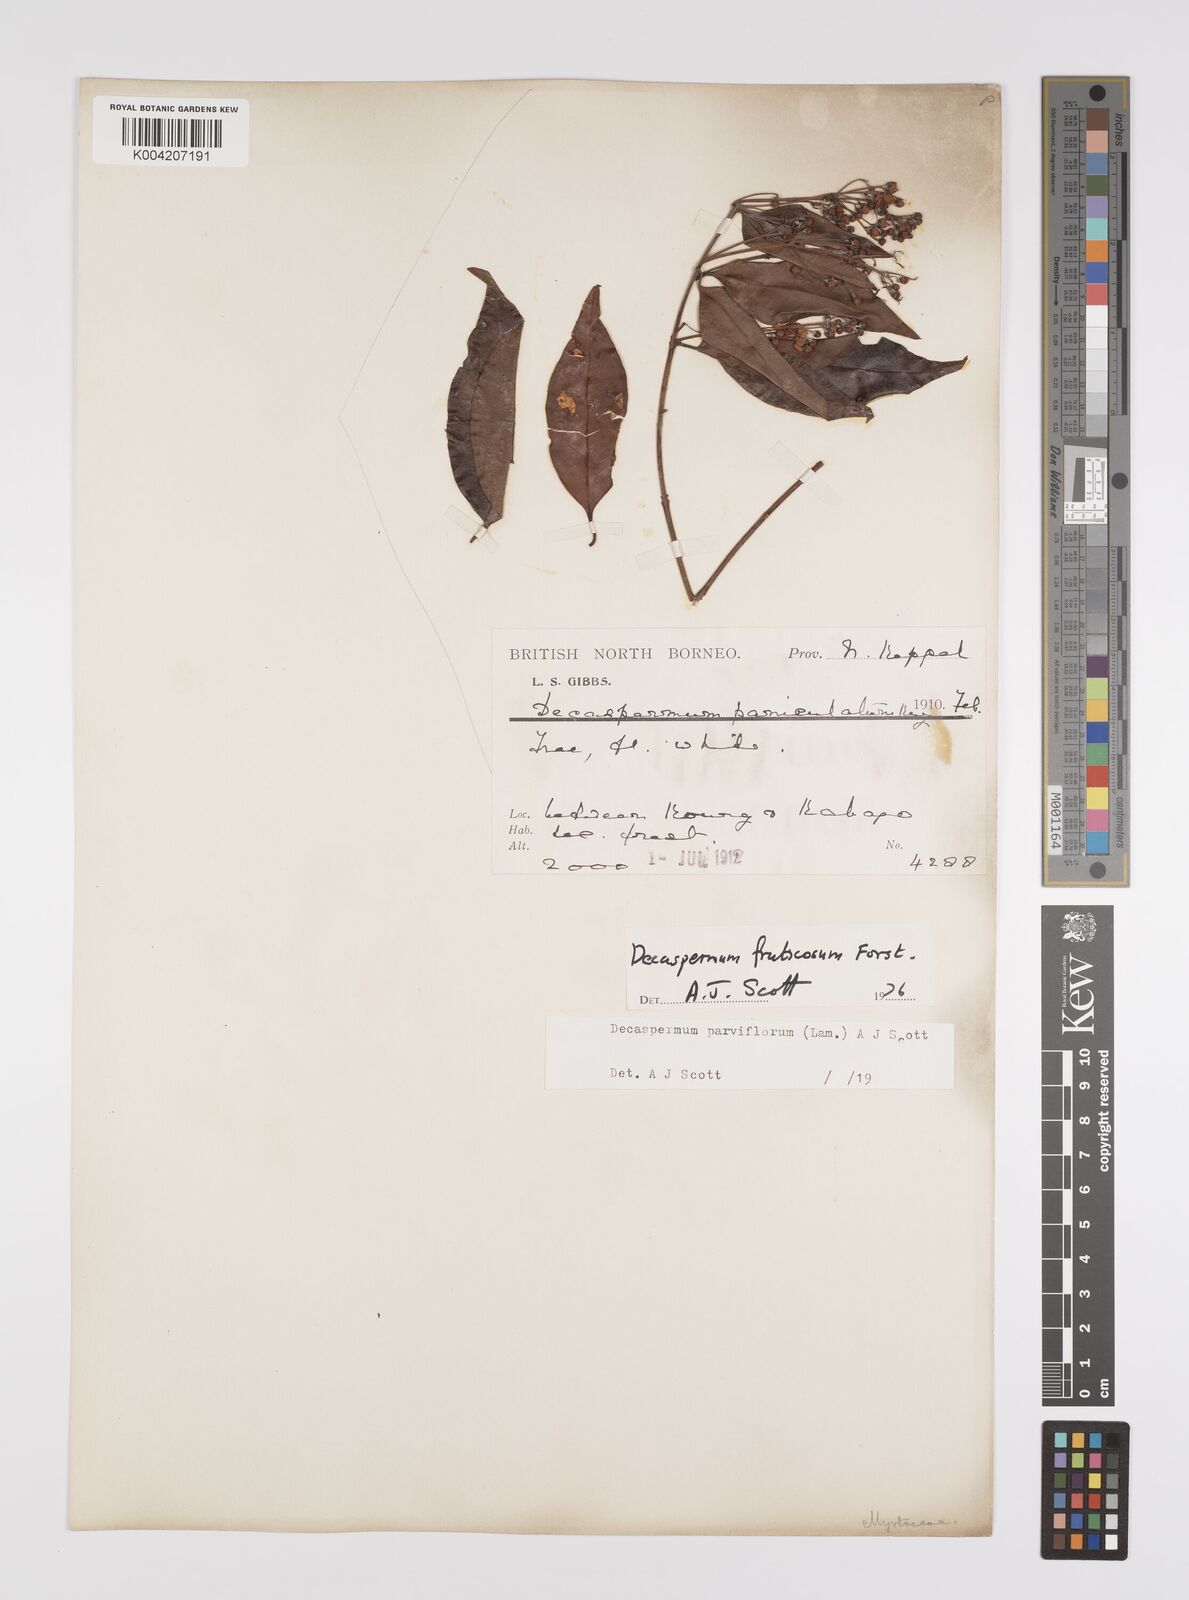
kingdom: Plantae
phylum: Tracheophyta
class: Magnoliopsida
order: Myrtales
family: Myrtaceae
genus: Decaspermum
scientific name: Decaspermum parviflorum
